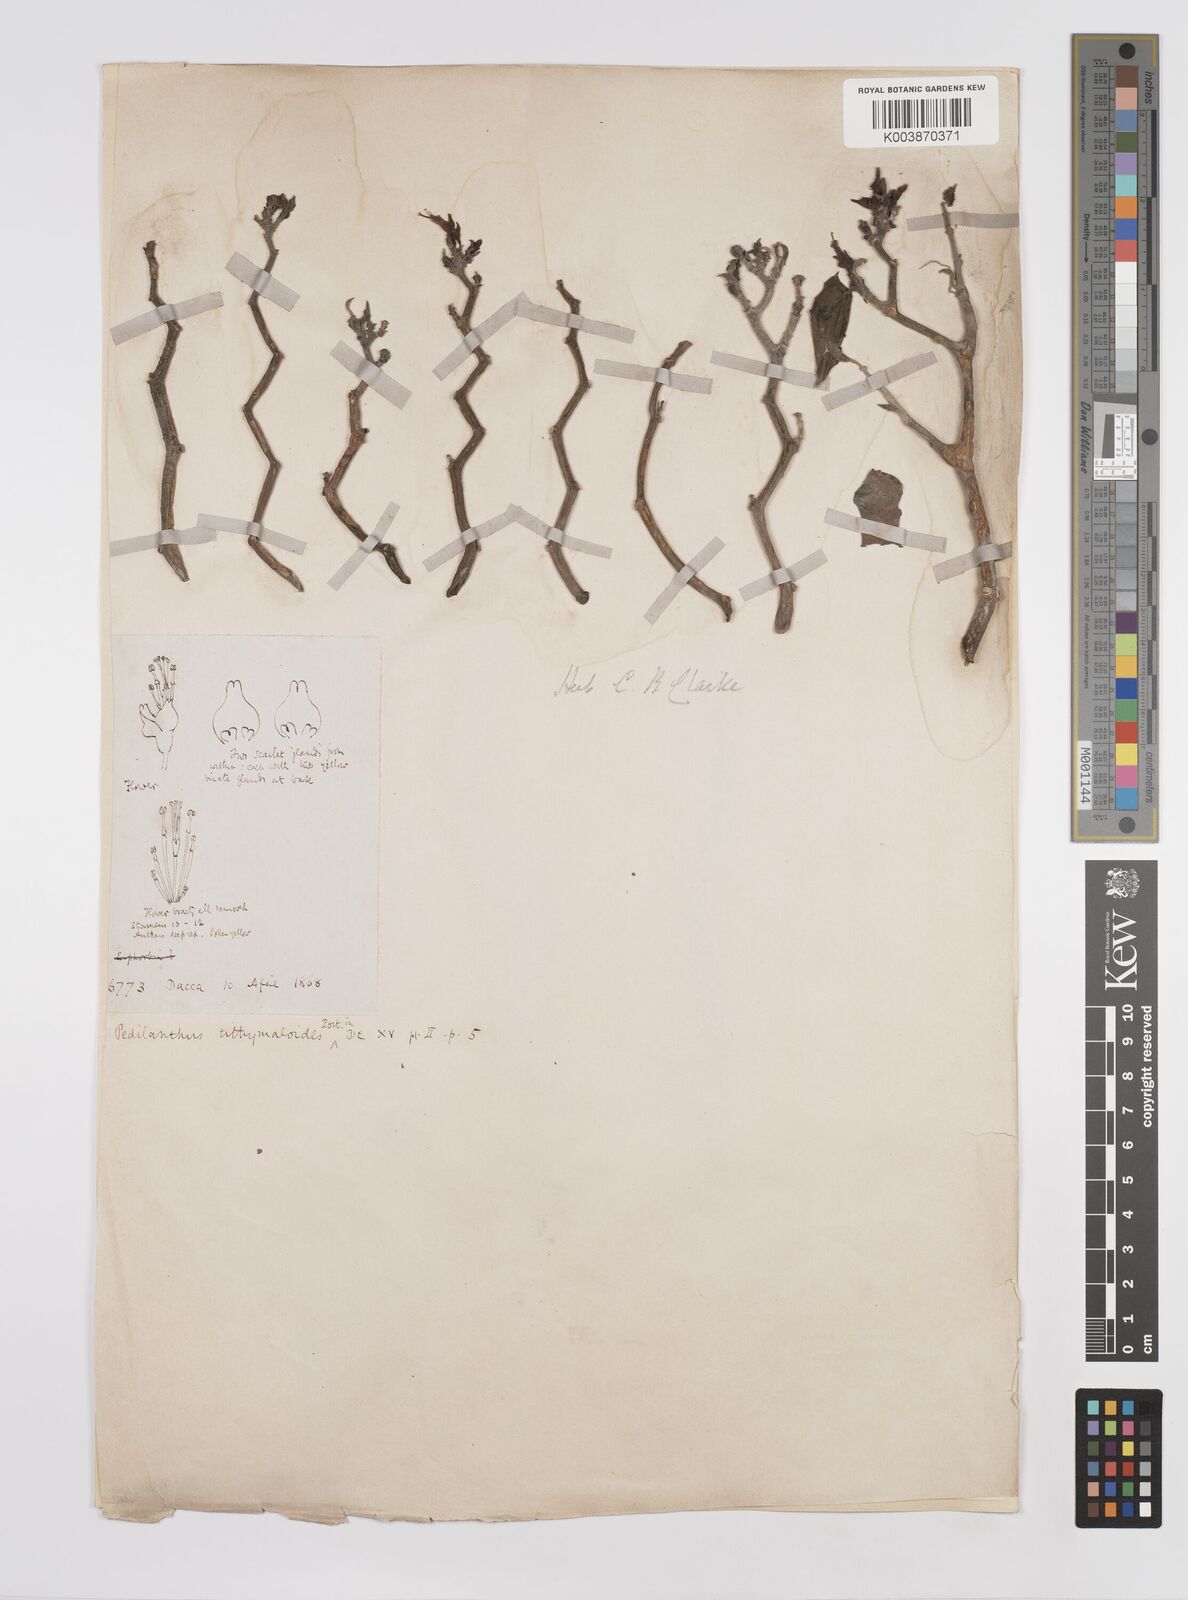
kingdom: Plantae
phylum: Tracheophyta
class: Magnoliopsida
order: Malpighiales
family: Euphorbiaceae
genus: Euphorbia
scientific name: Euphorbia tithymaloides
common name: Slipperplant
